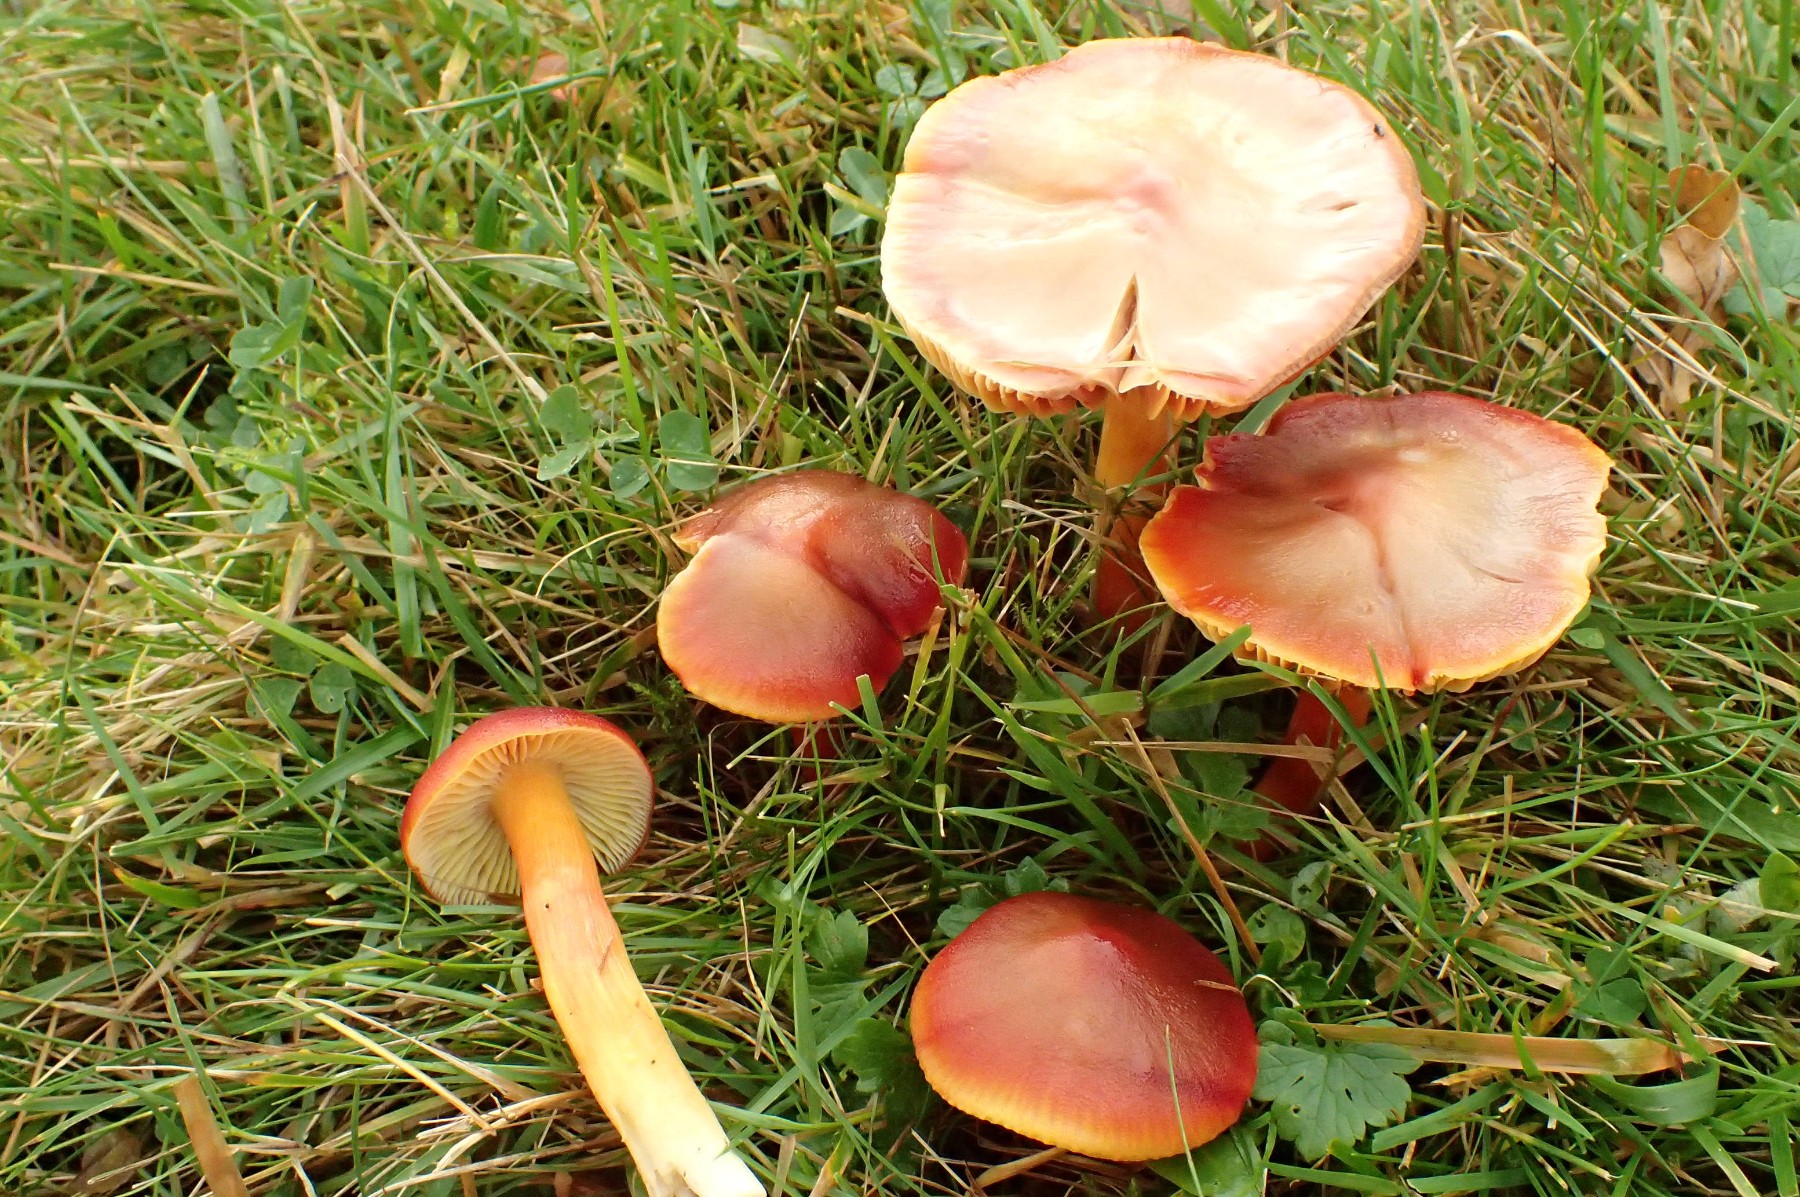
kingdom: Fungi
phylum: Basidiomycota
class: Agaricomycetes
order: Agaricales
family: Hygrophoraceae
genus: Hygrocybe
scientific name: Hygrocybe punicea
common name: skarlagen-vokshat
